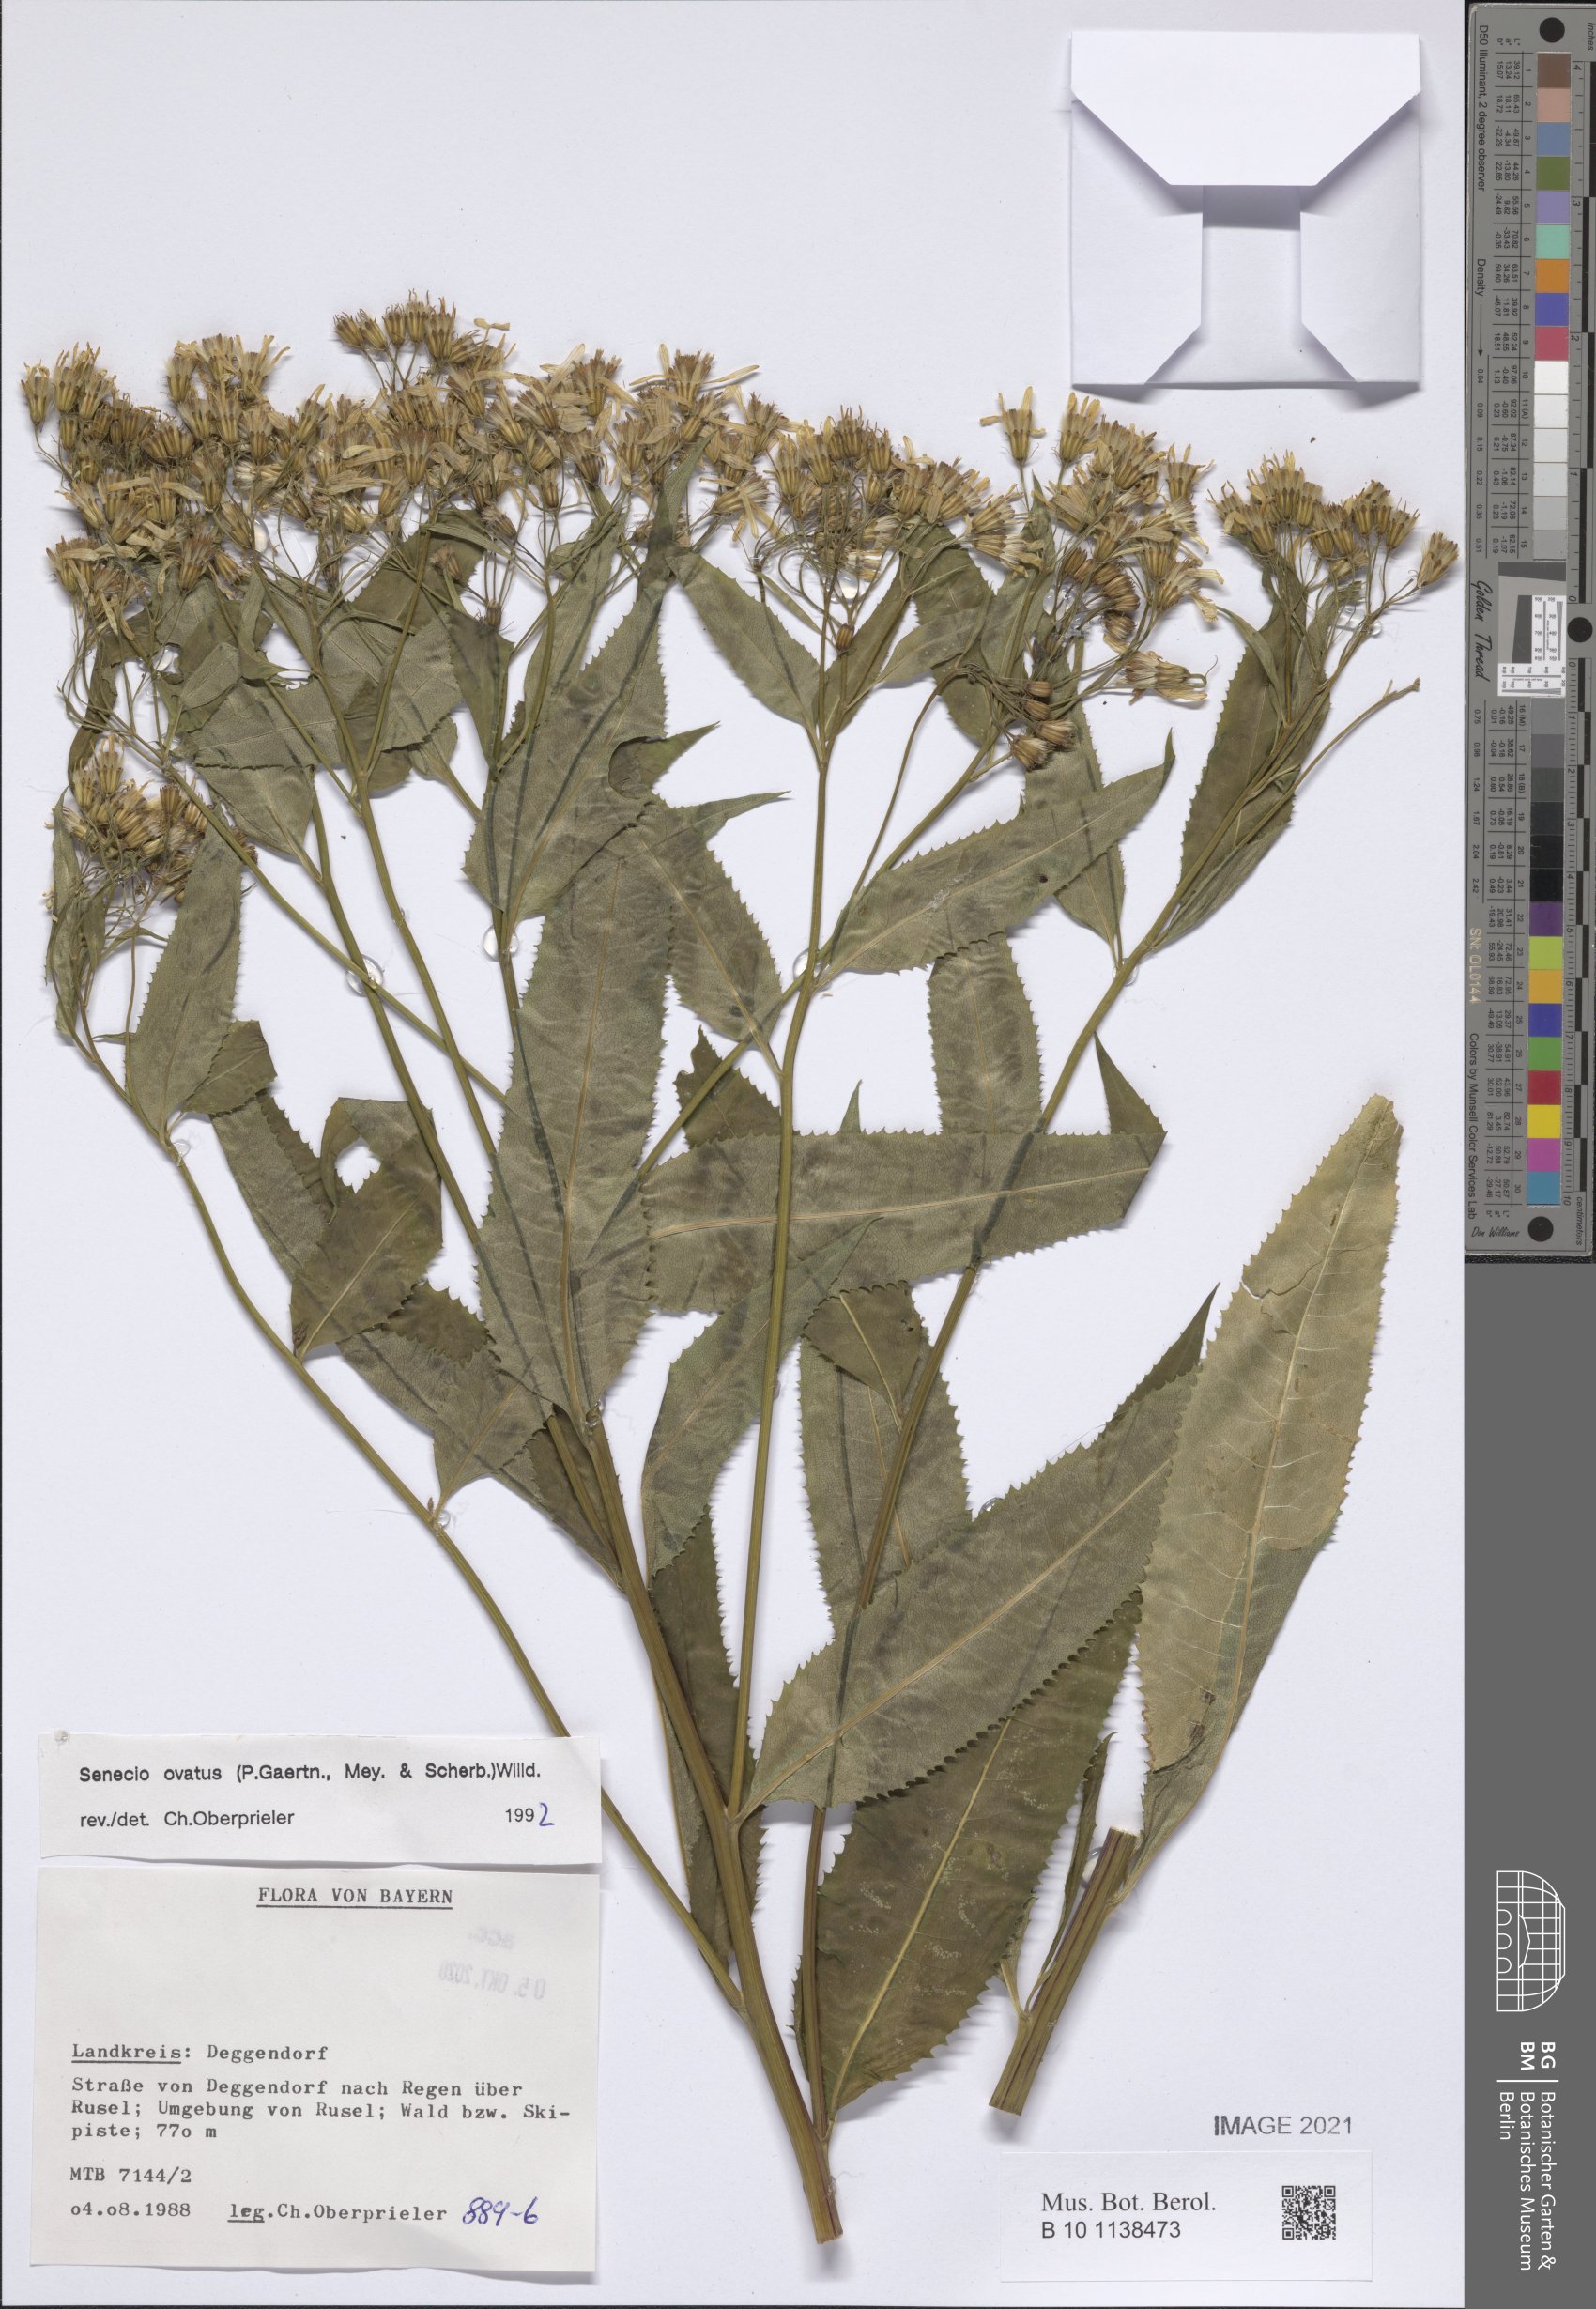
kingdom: Plantae
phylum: Tracheophyta
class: Magnoliopsida
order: Asterales
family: Asteraceae
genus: Senecio
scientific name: Senecio ovatus
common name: Wood ragwort
